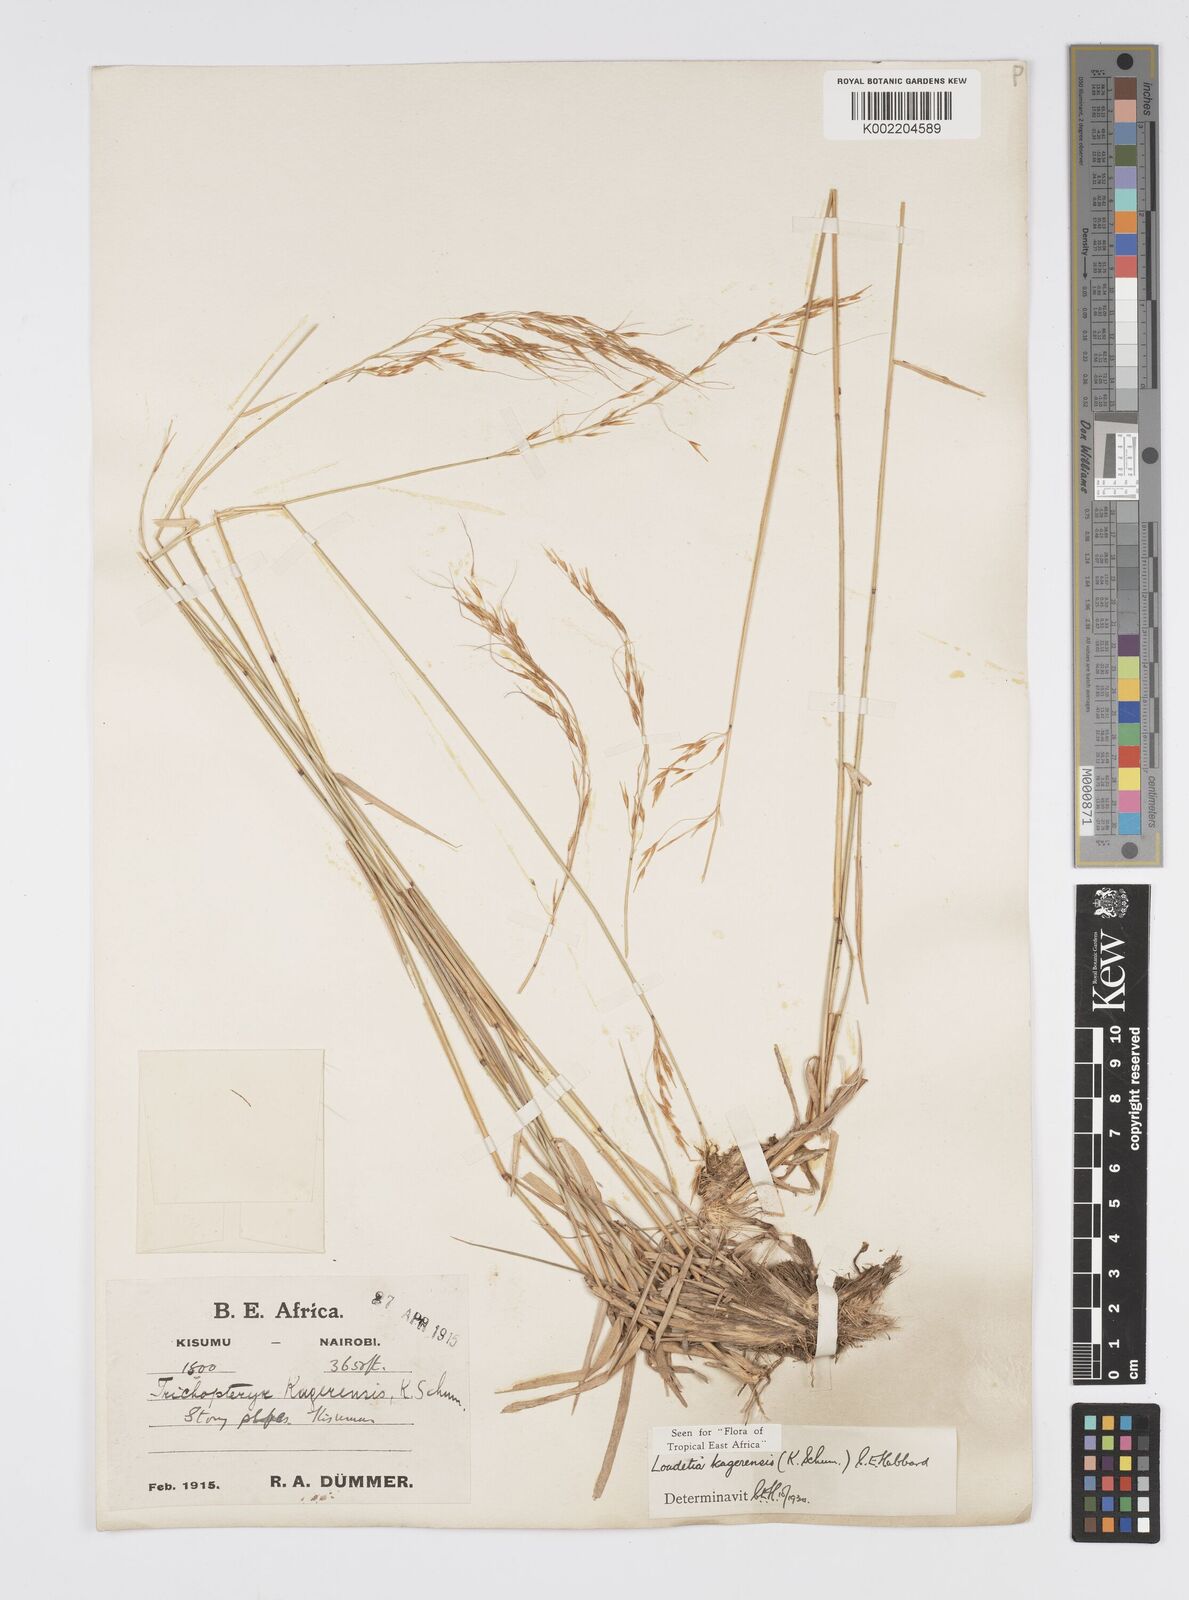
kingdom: Plantae
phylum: Tracheophyta
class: Liliopsida
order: Poales
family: Poaceae
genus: Loudetia
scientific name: Loudetia kagerensis
